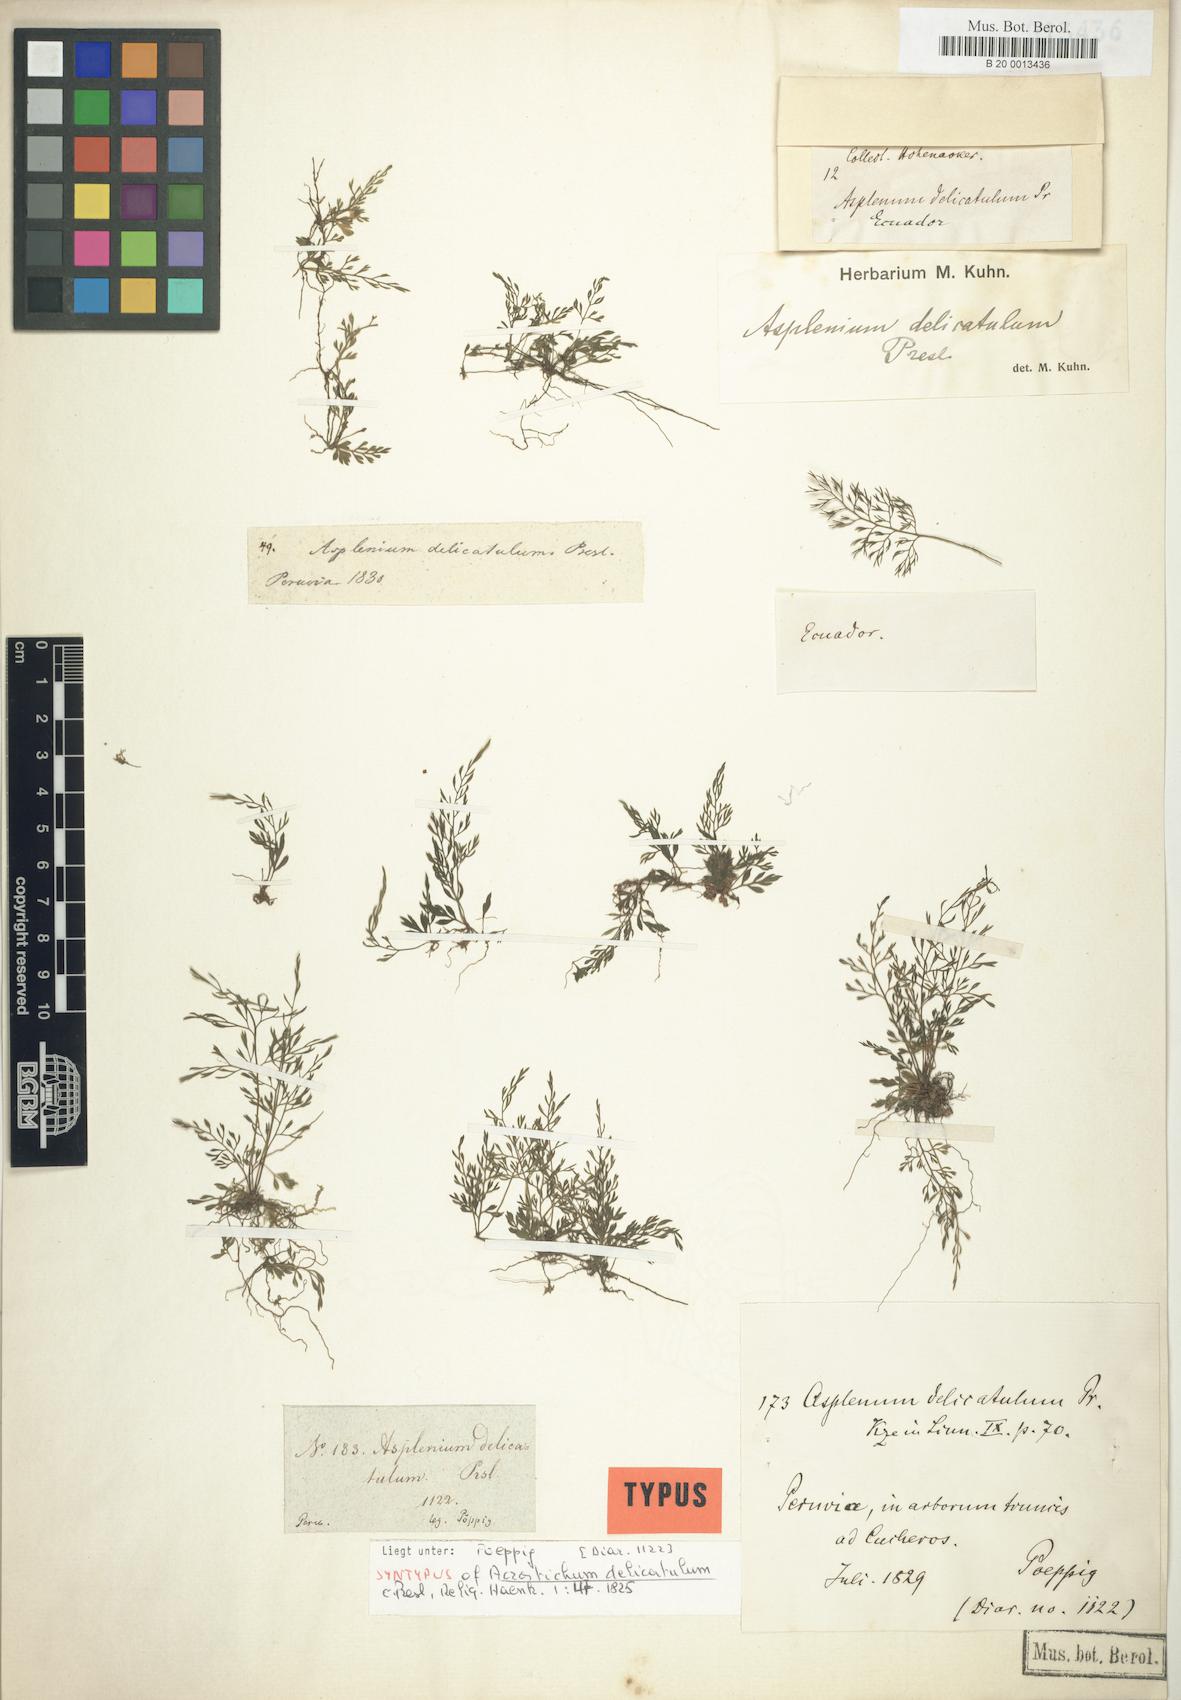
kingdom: Plantae
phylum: Tracheophyta
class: Polypodiopsida
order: Polypodiales
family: Aspleniaceae
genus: Asplenium
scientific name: Asplenium delicatulum
